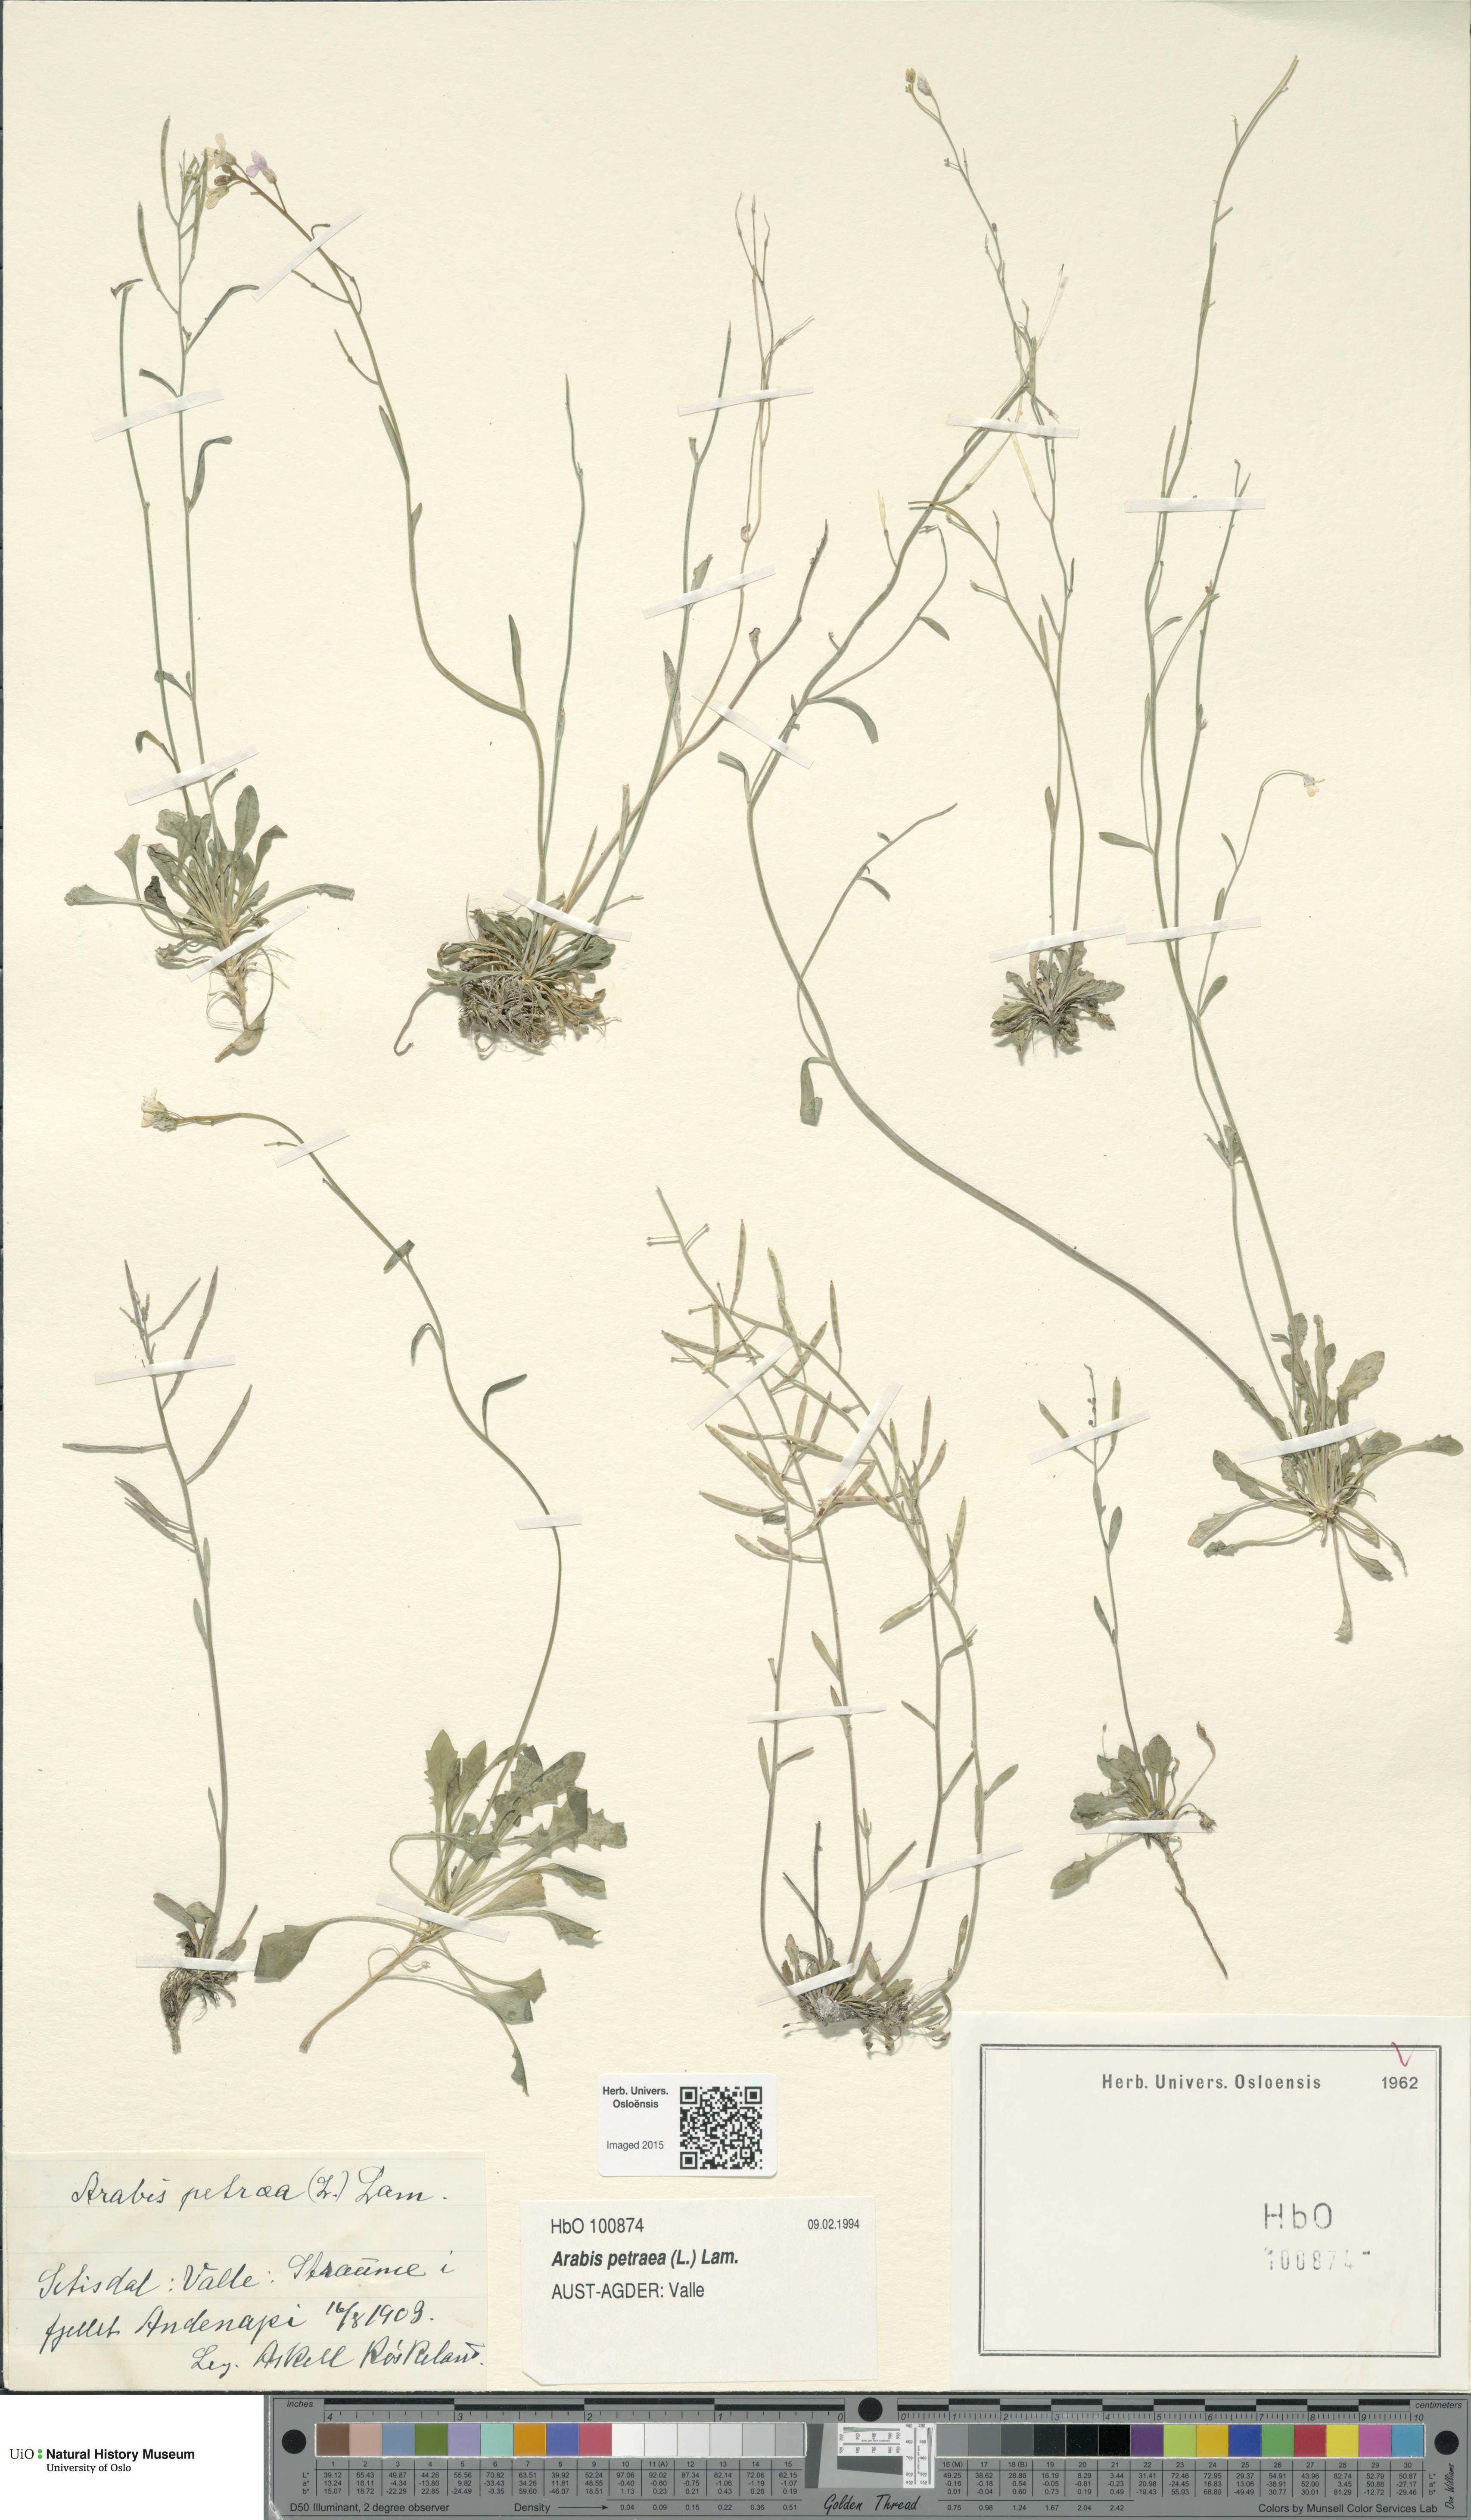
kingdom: Plantae
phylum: Tracheophyta
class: Magnoliopsida
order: Brassicales
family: Brassicaceae
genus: Arabidopsis
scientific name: Arabidopsis petraea
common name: Northern rock-cress
